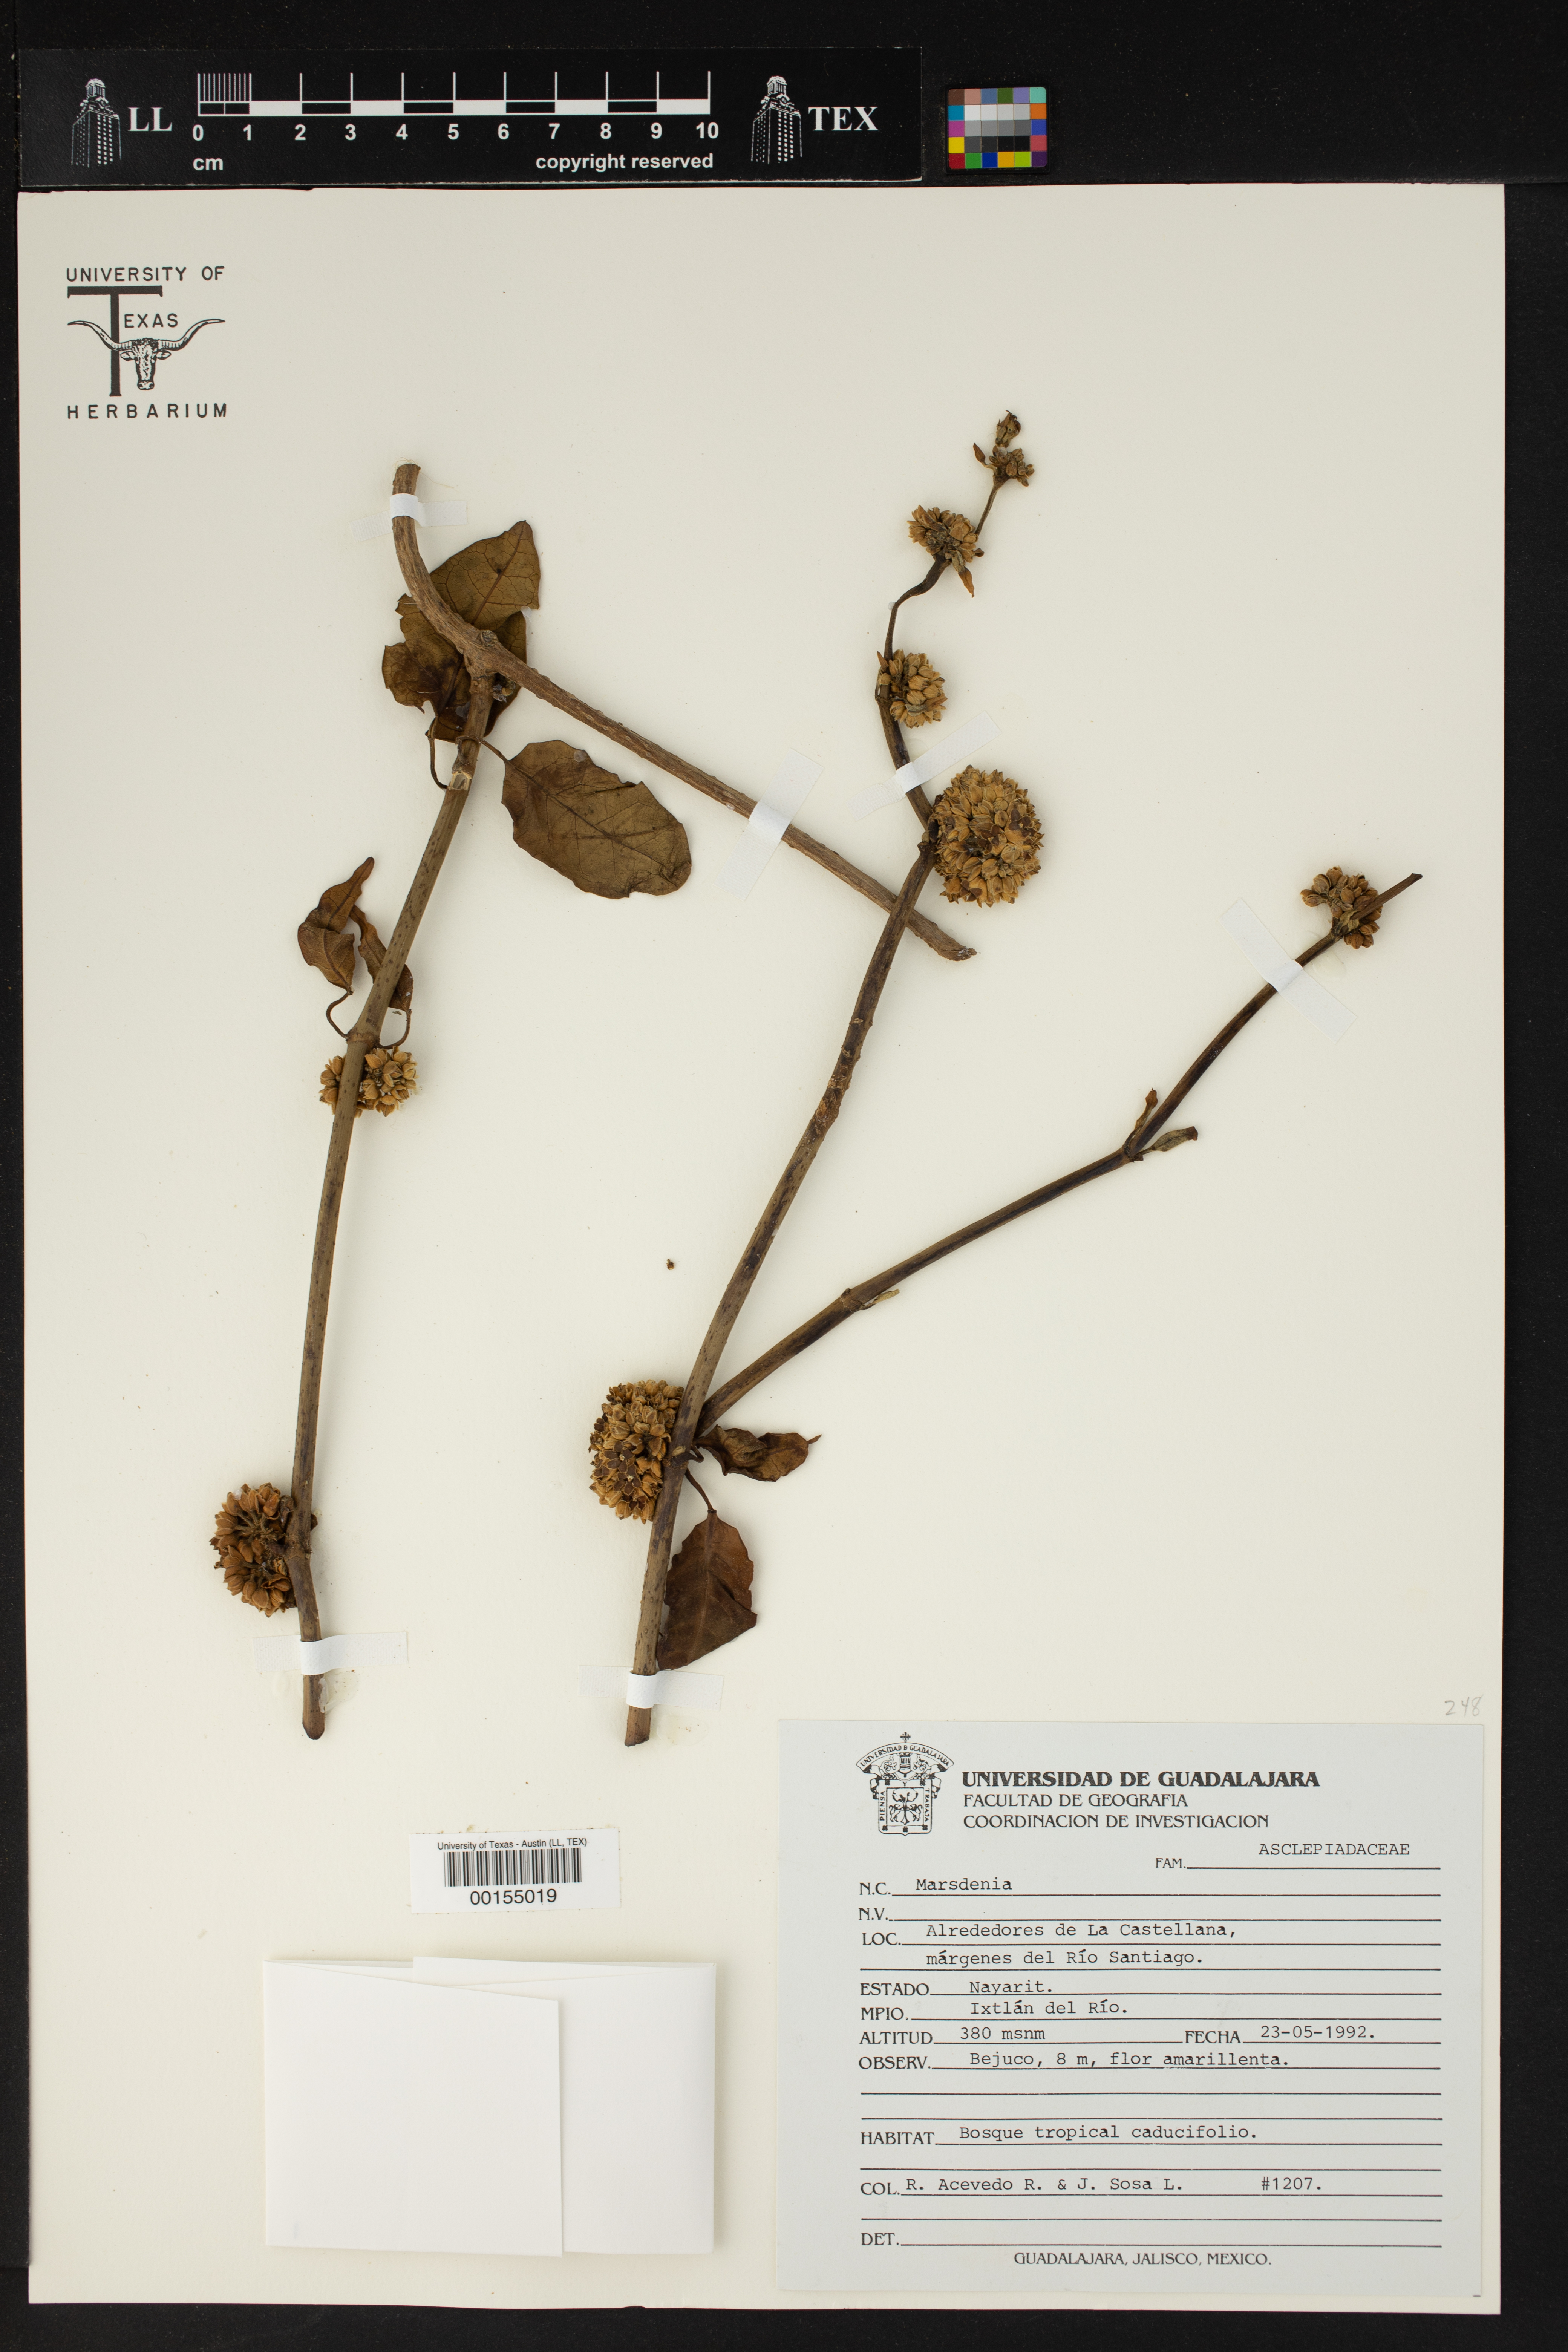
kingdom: Plantae
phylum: Tracheophyta
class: Magnoliopsida
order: Gentianales
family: Apocynaceae
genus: Marsdenia
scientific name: Marsdenia
